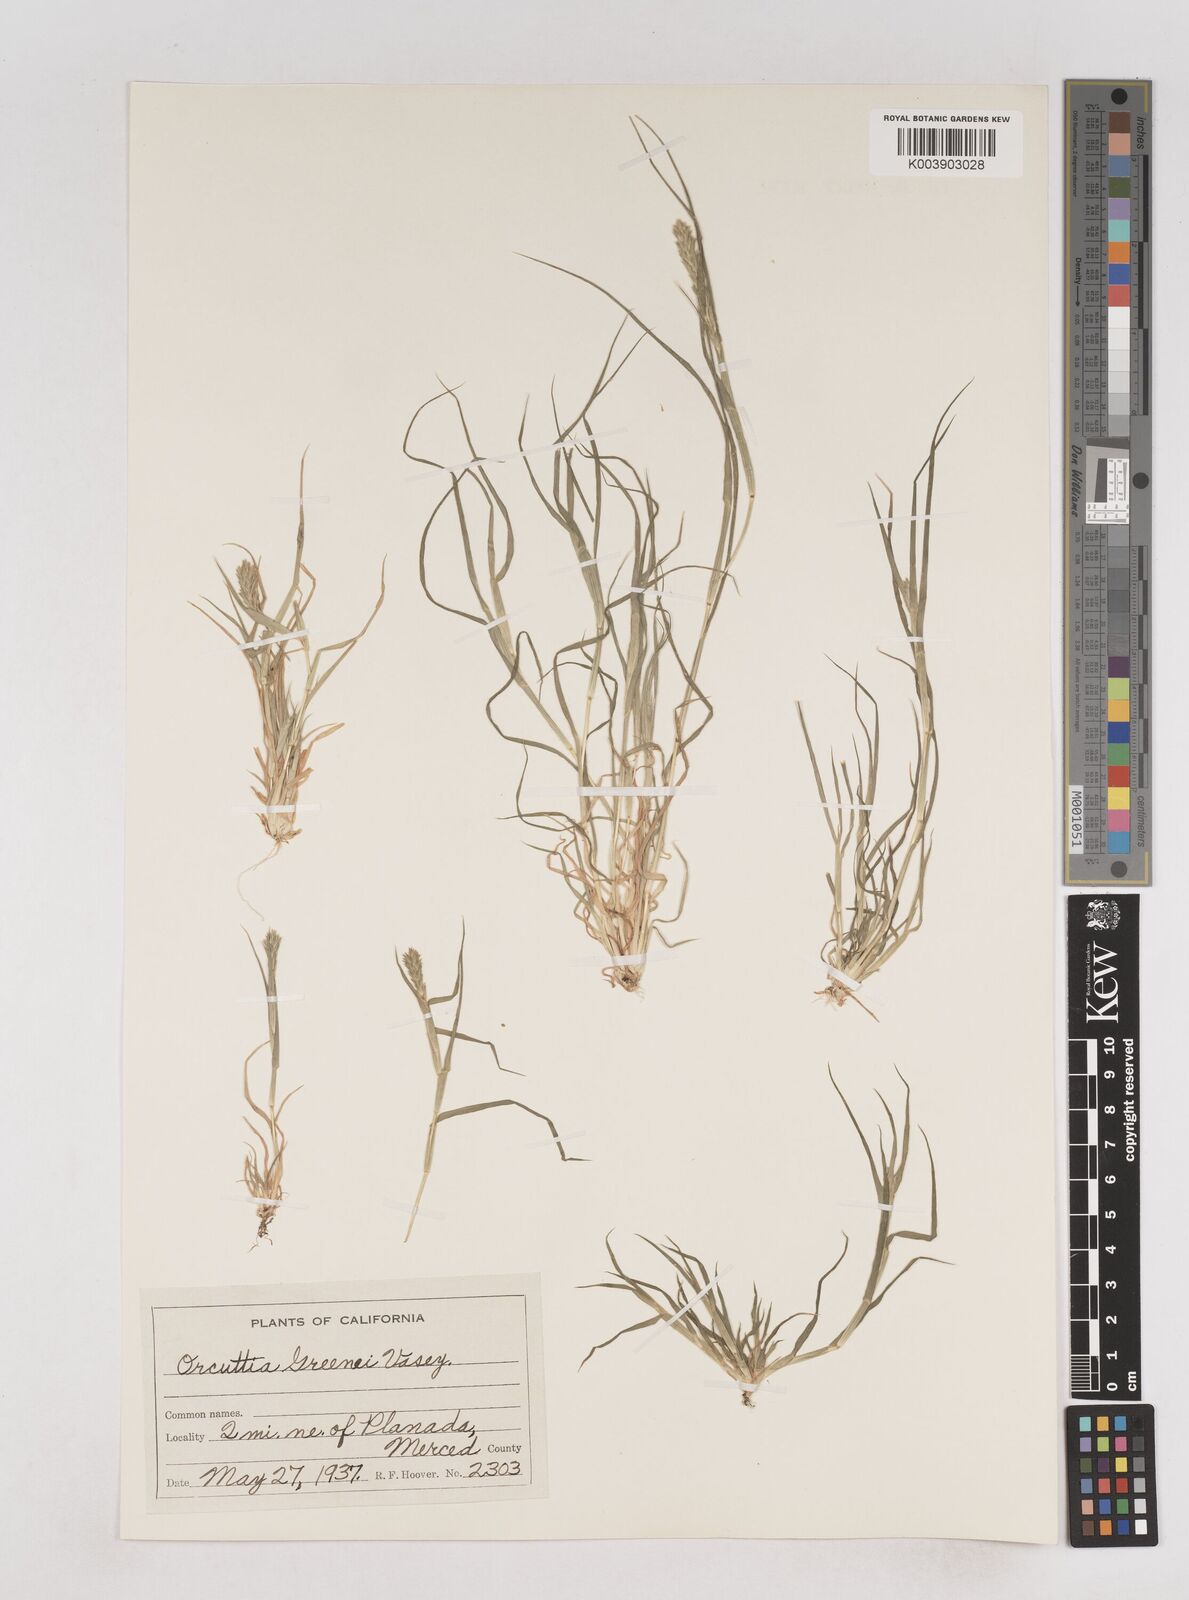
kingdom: Plantae
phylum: Tracheophyta
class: Liliopsida
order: Poales
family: Poaceae
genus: Tuctoria
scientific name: Tuctoria greenei
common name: Awnless spiral grass
